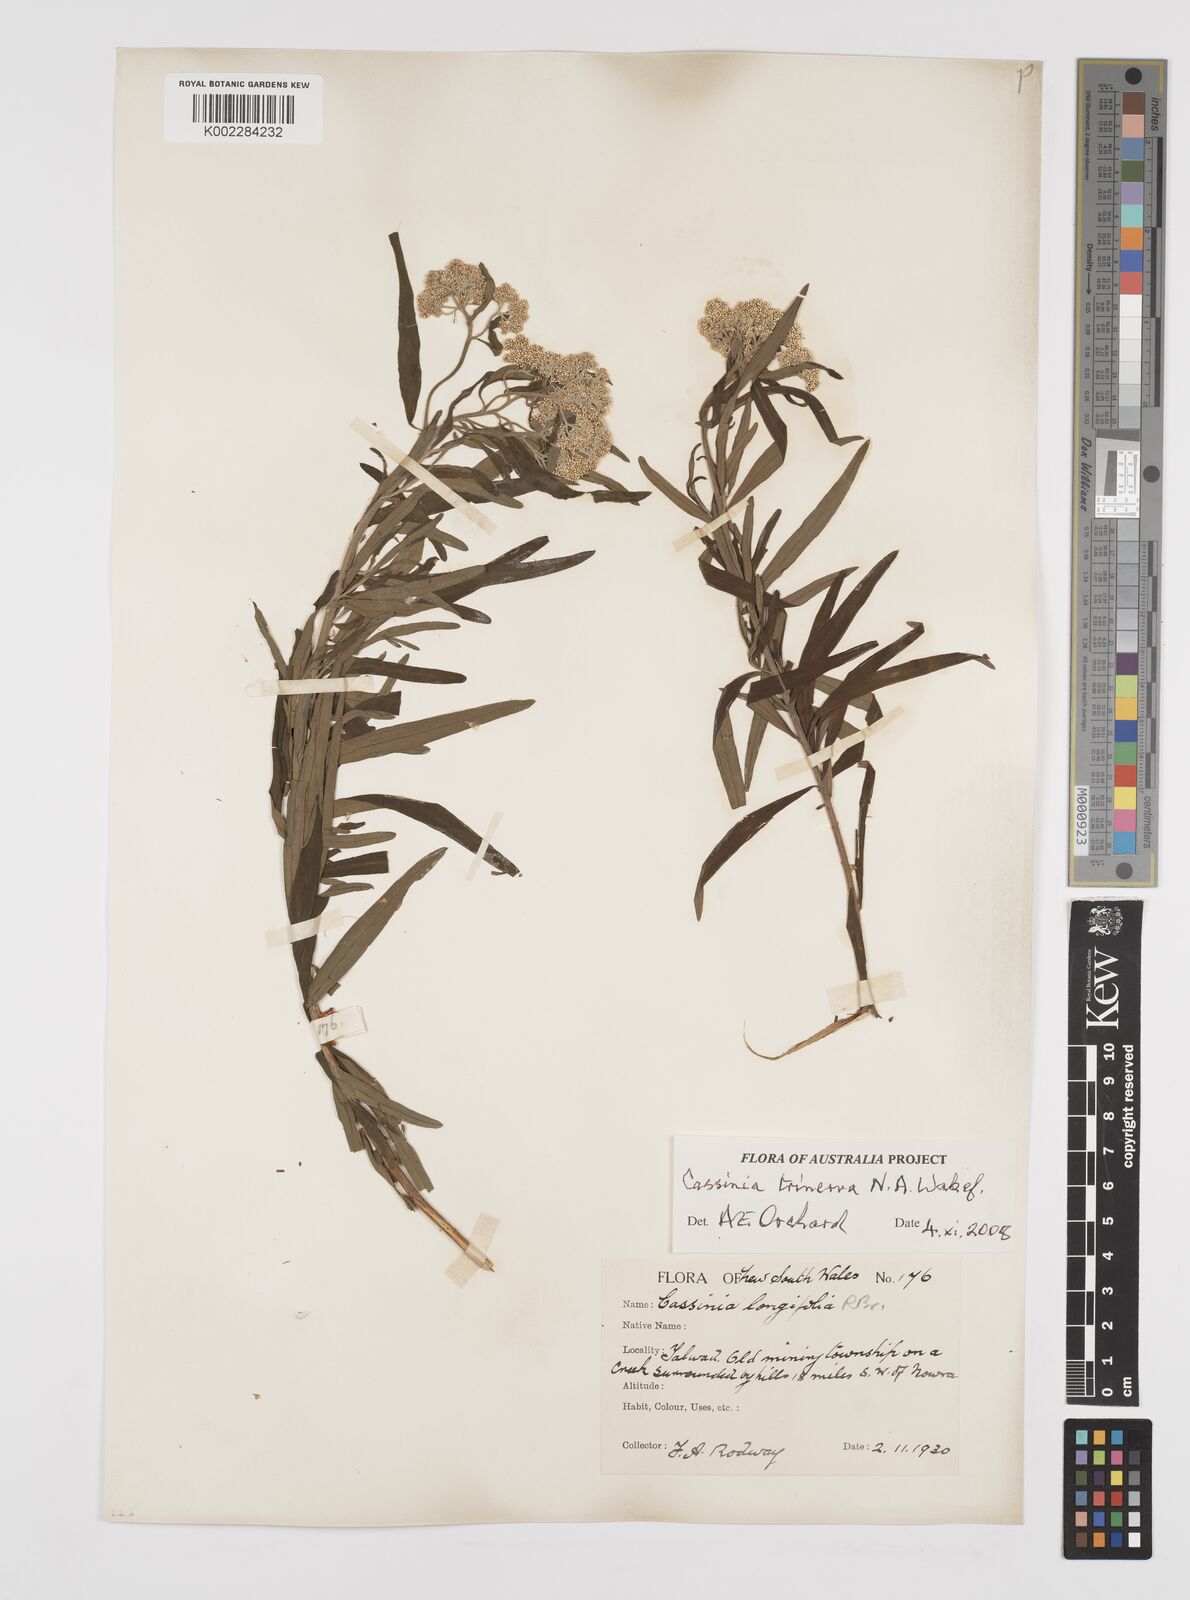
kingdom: Plantae
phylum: Tracheophyta
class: Magnoliopsida
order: Asterales
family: Asteraceae
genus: Cassinia
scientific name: Cassinia trinerva
